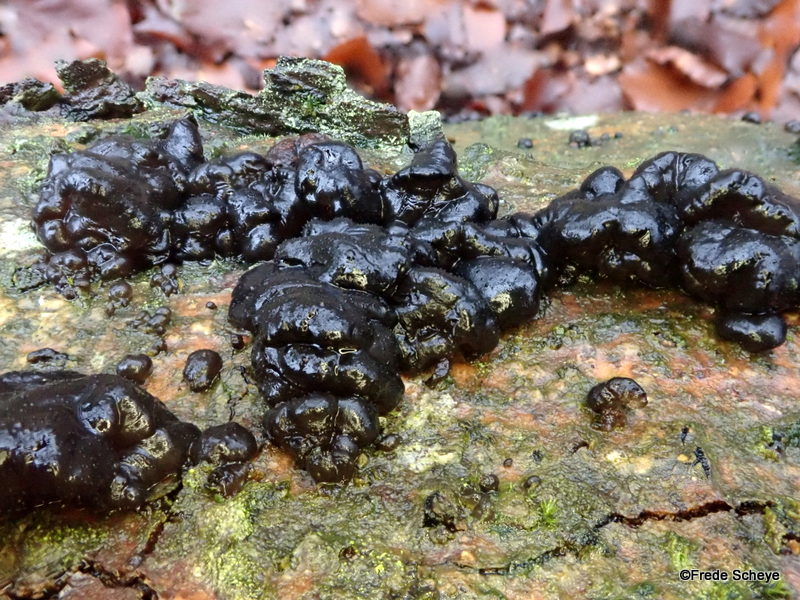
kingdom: Fungi
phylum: Basidiomycota
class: Agaricomycetes
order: Auriculariales
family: Auriculariaceae
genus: Exidia
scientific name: Exidia nigricans
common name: almindelig bævretop
